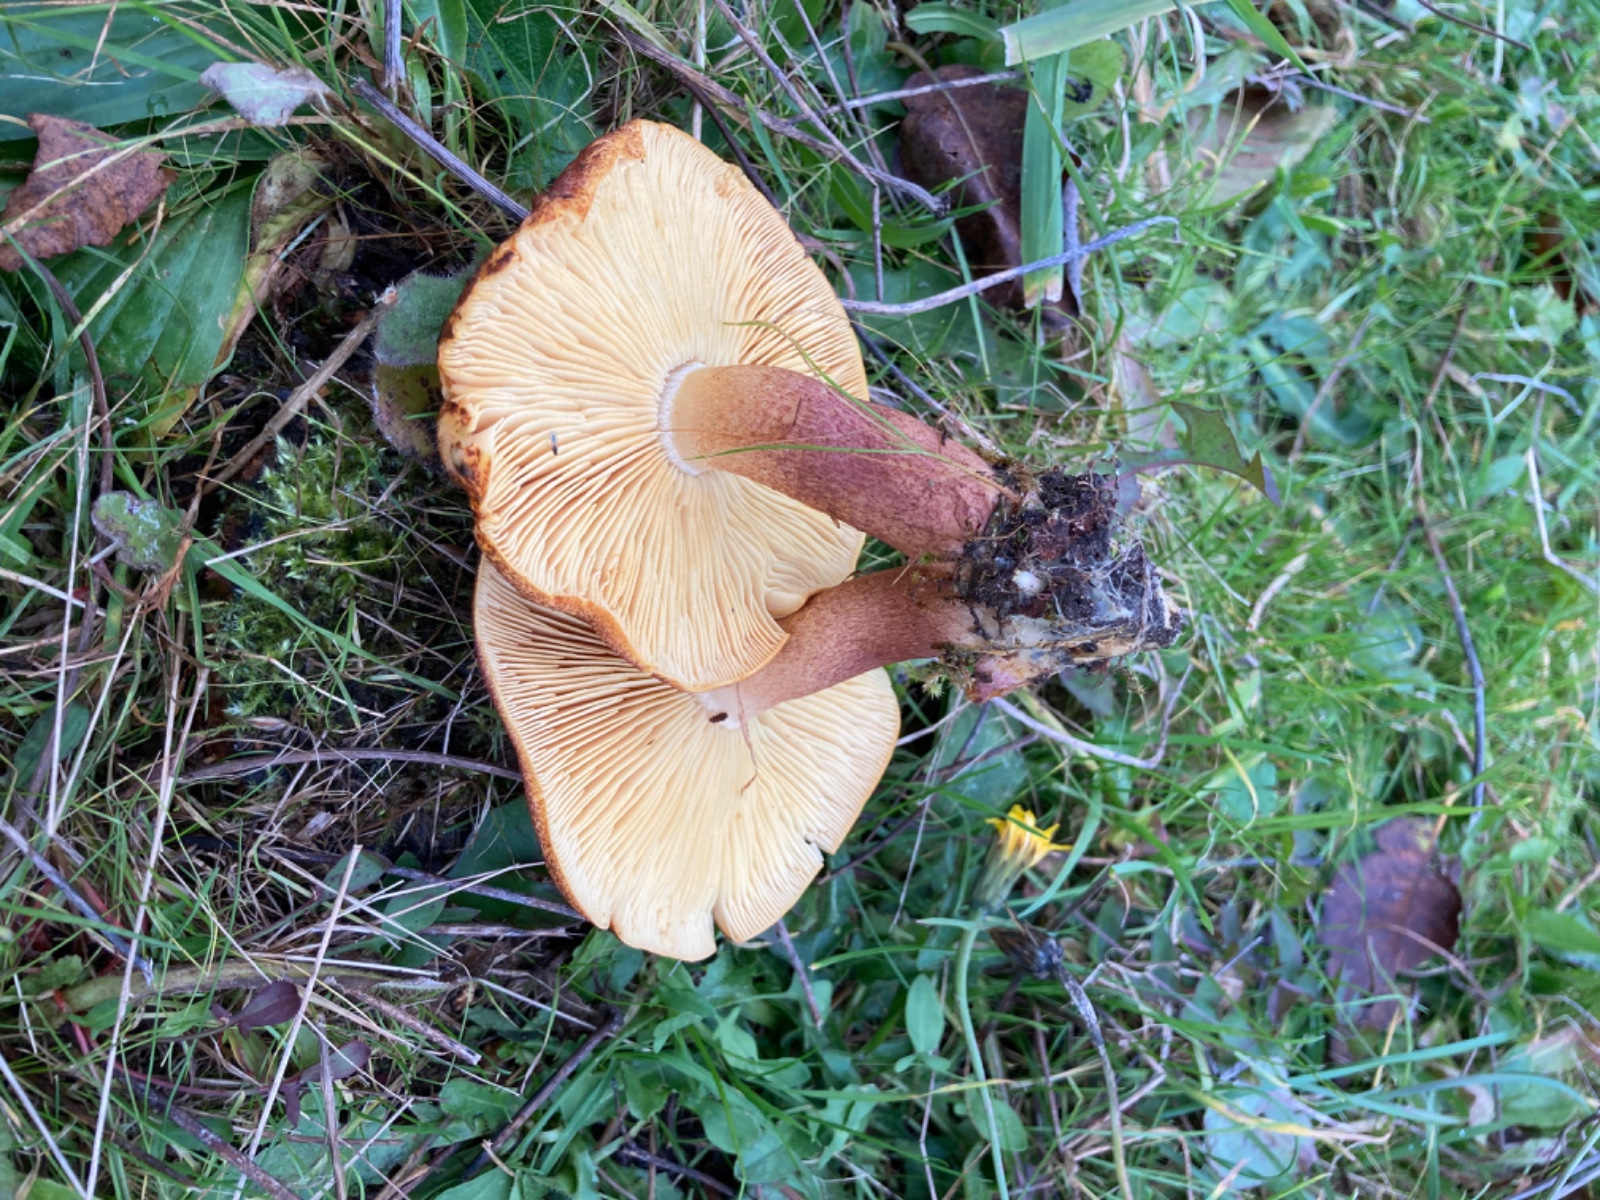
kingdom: Fungi
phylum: Basidiomycota
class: Agaricomycetes
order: Agaricales
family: Tricholomataceae
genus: Tricholomopsis
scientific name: Tricholomopsis rutilans
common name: purpur-væbnerhat
